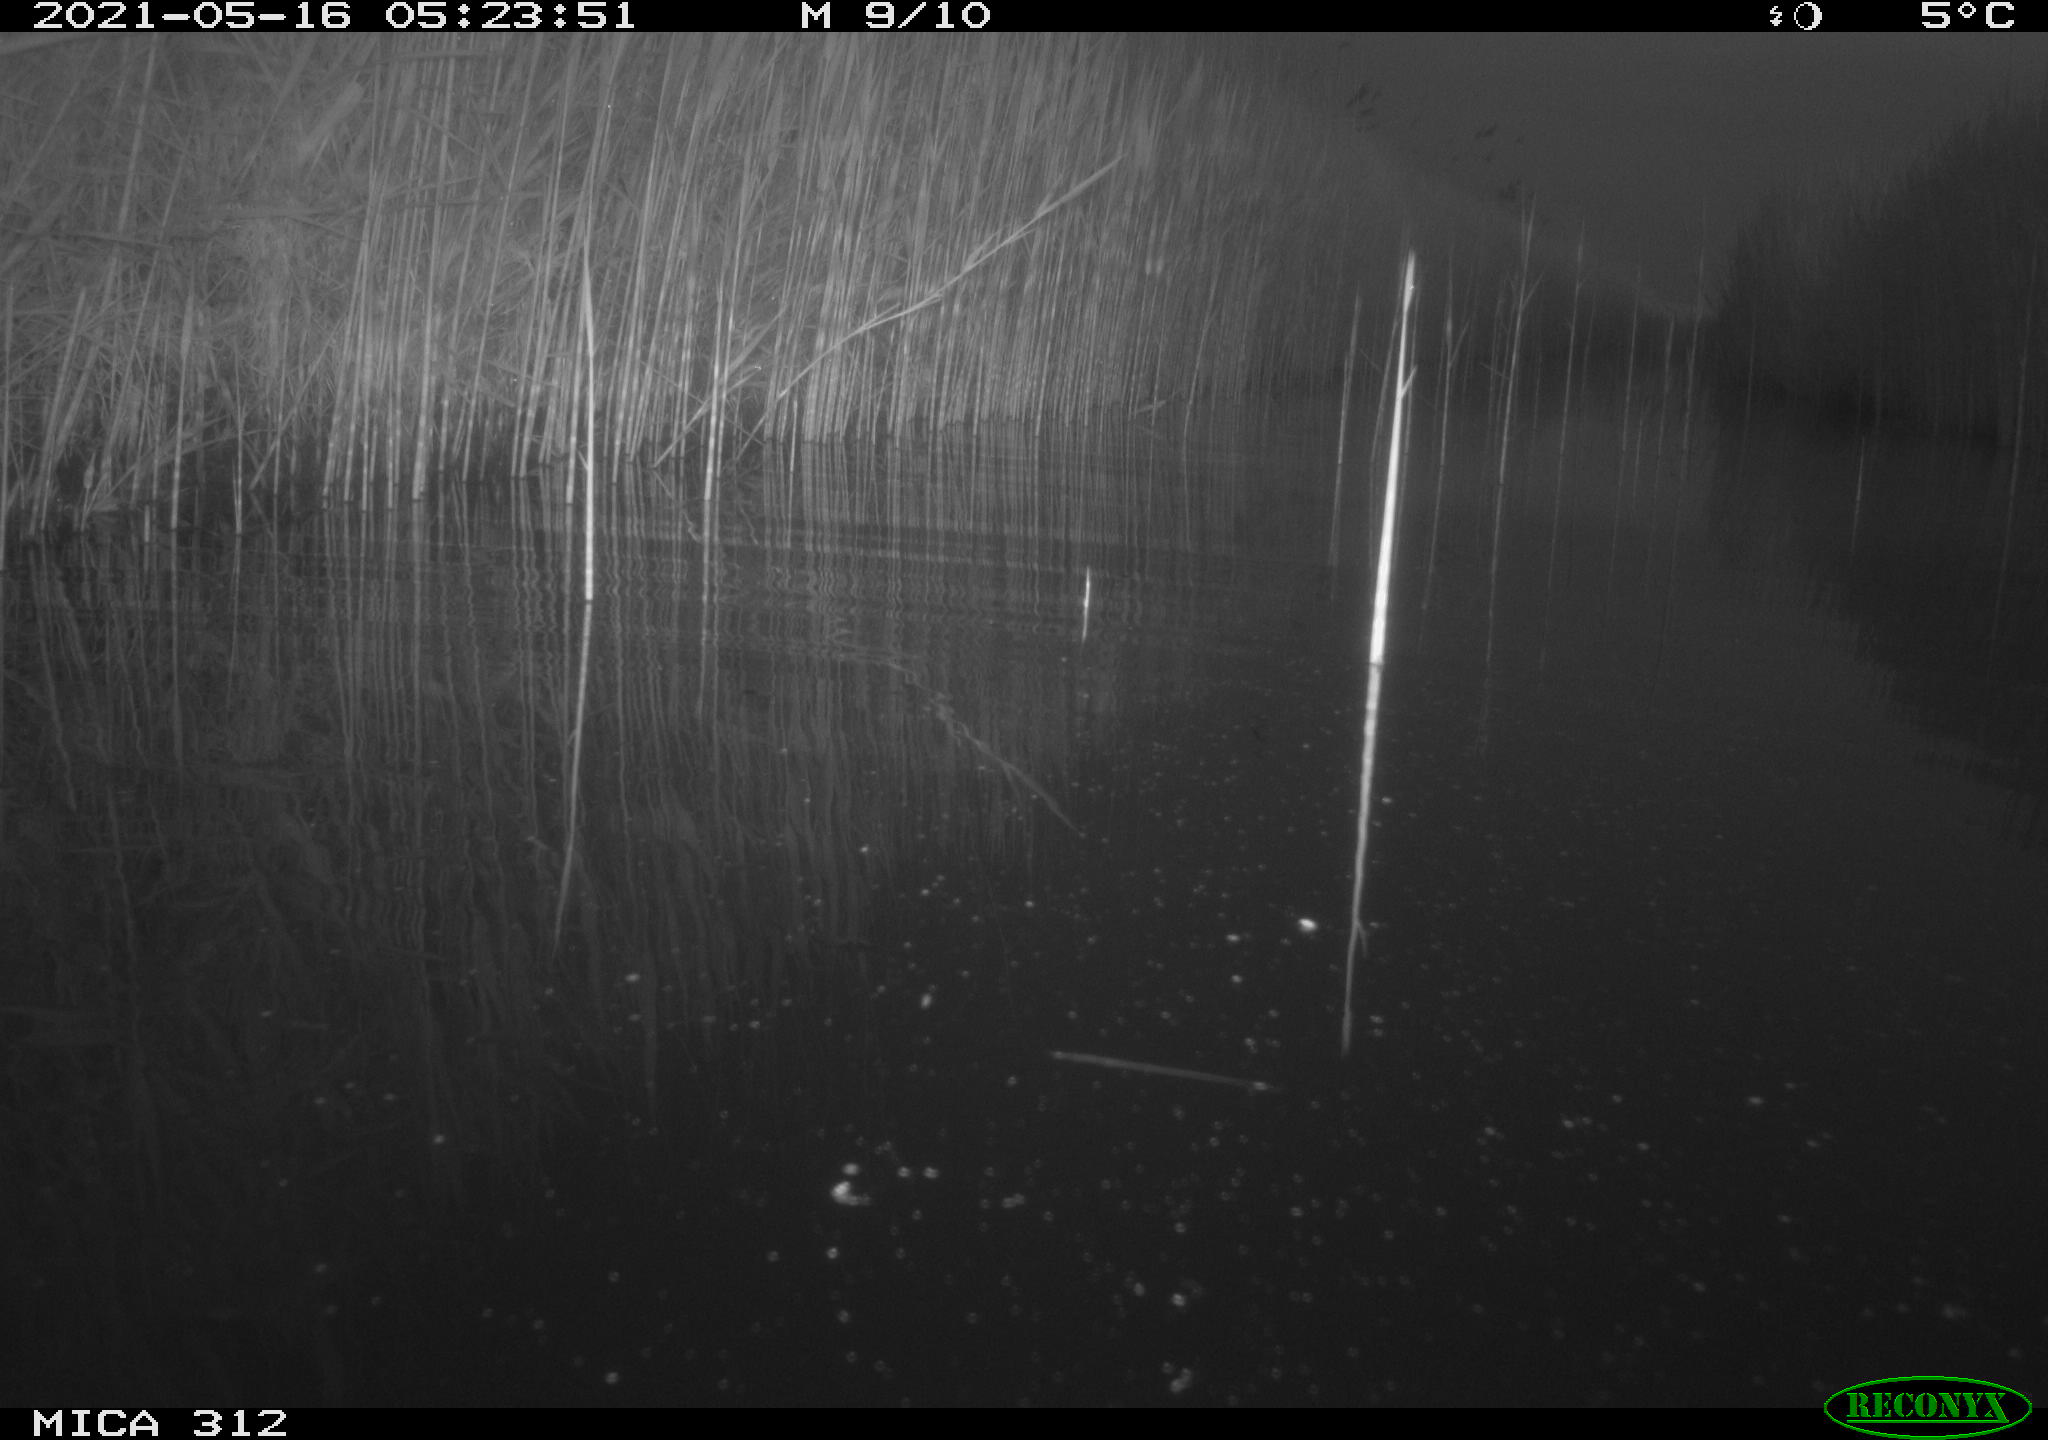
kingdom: Animalia
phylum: Chordata
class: Aves
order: Gruiformes
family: Rallidae
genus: Fulica
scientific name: Fulica atra
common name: Eurasian coot
